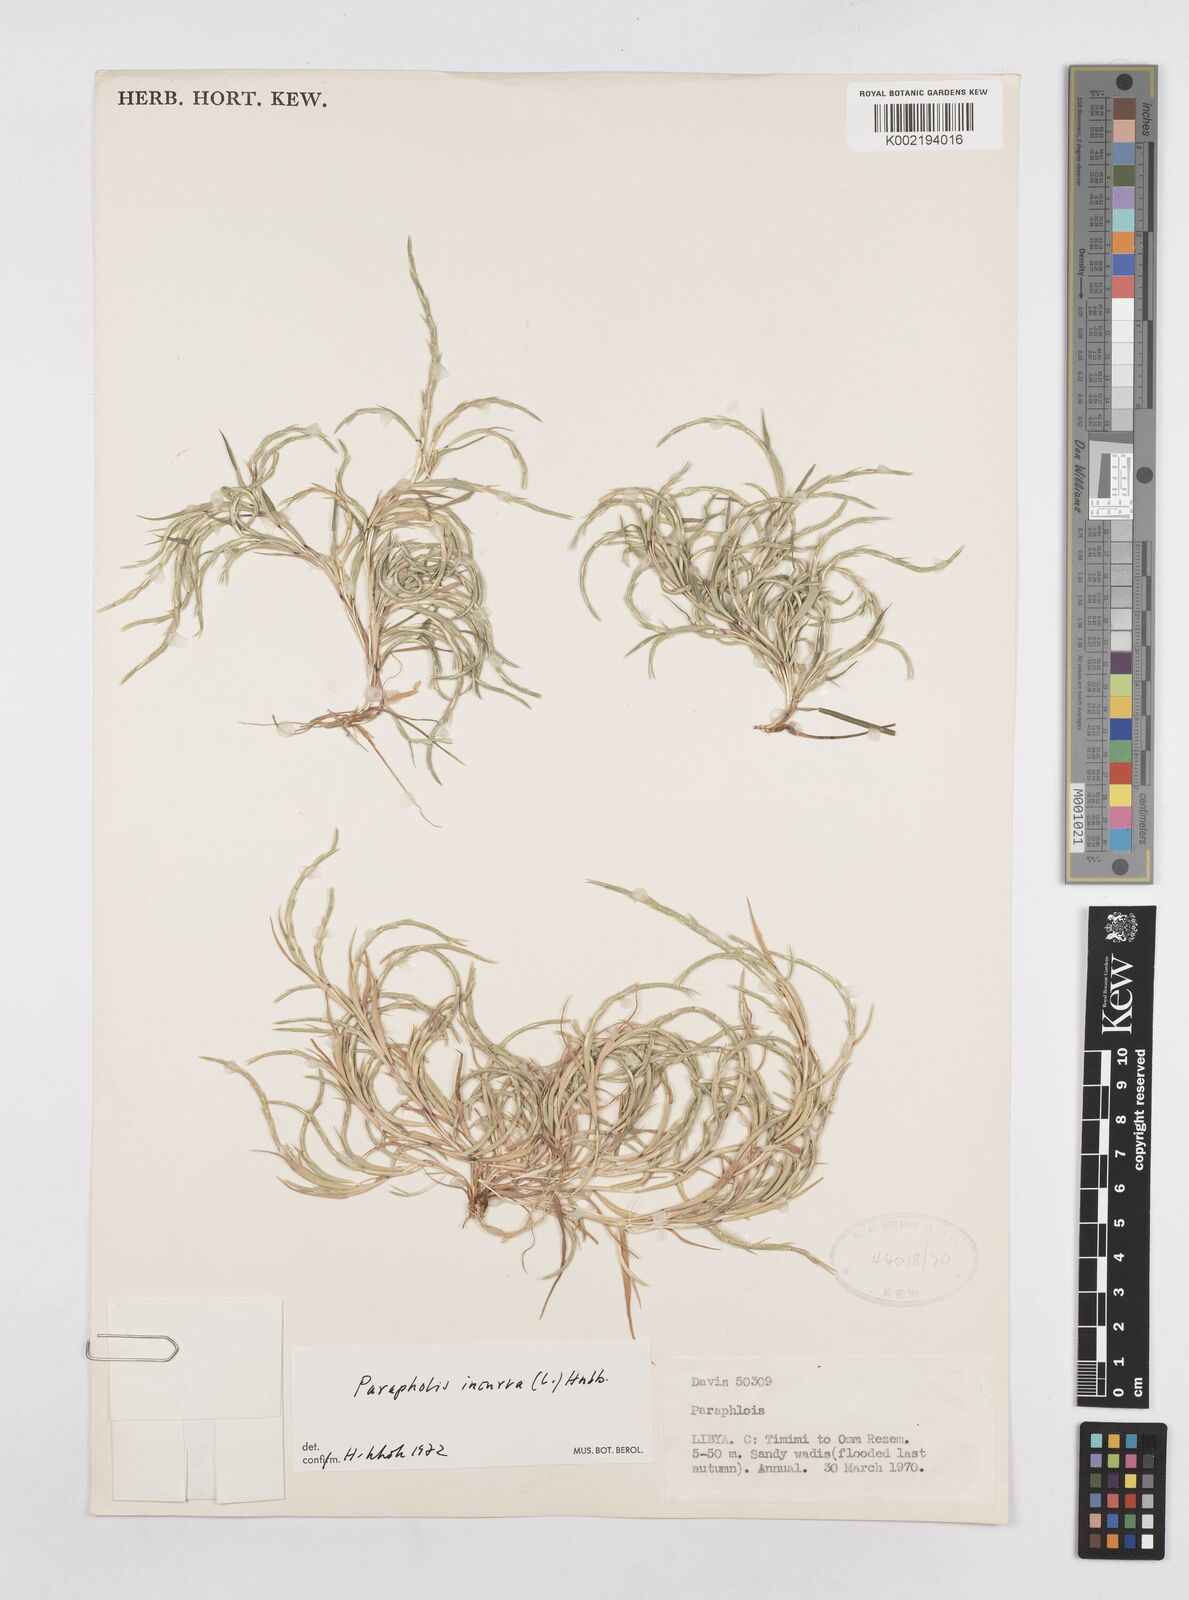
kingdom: Plantae
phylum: Tracheophyta
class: Liliopsida
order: Poales
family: Poaceae
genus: Parapholis
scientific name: Parapholis incurva
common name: Curved sicklegrass
